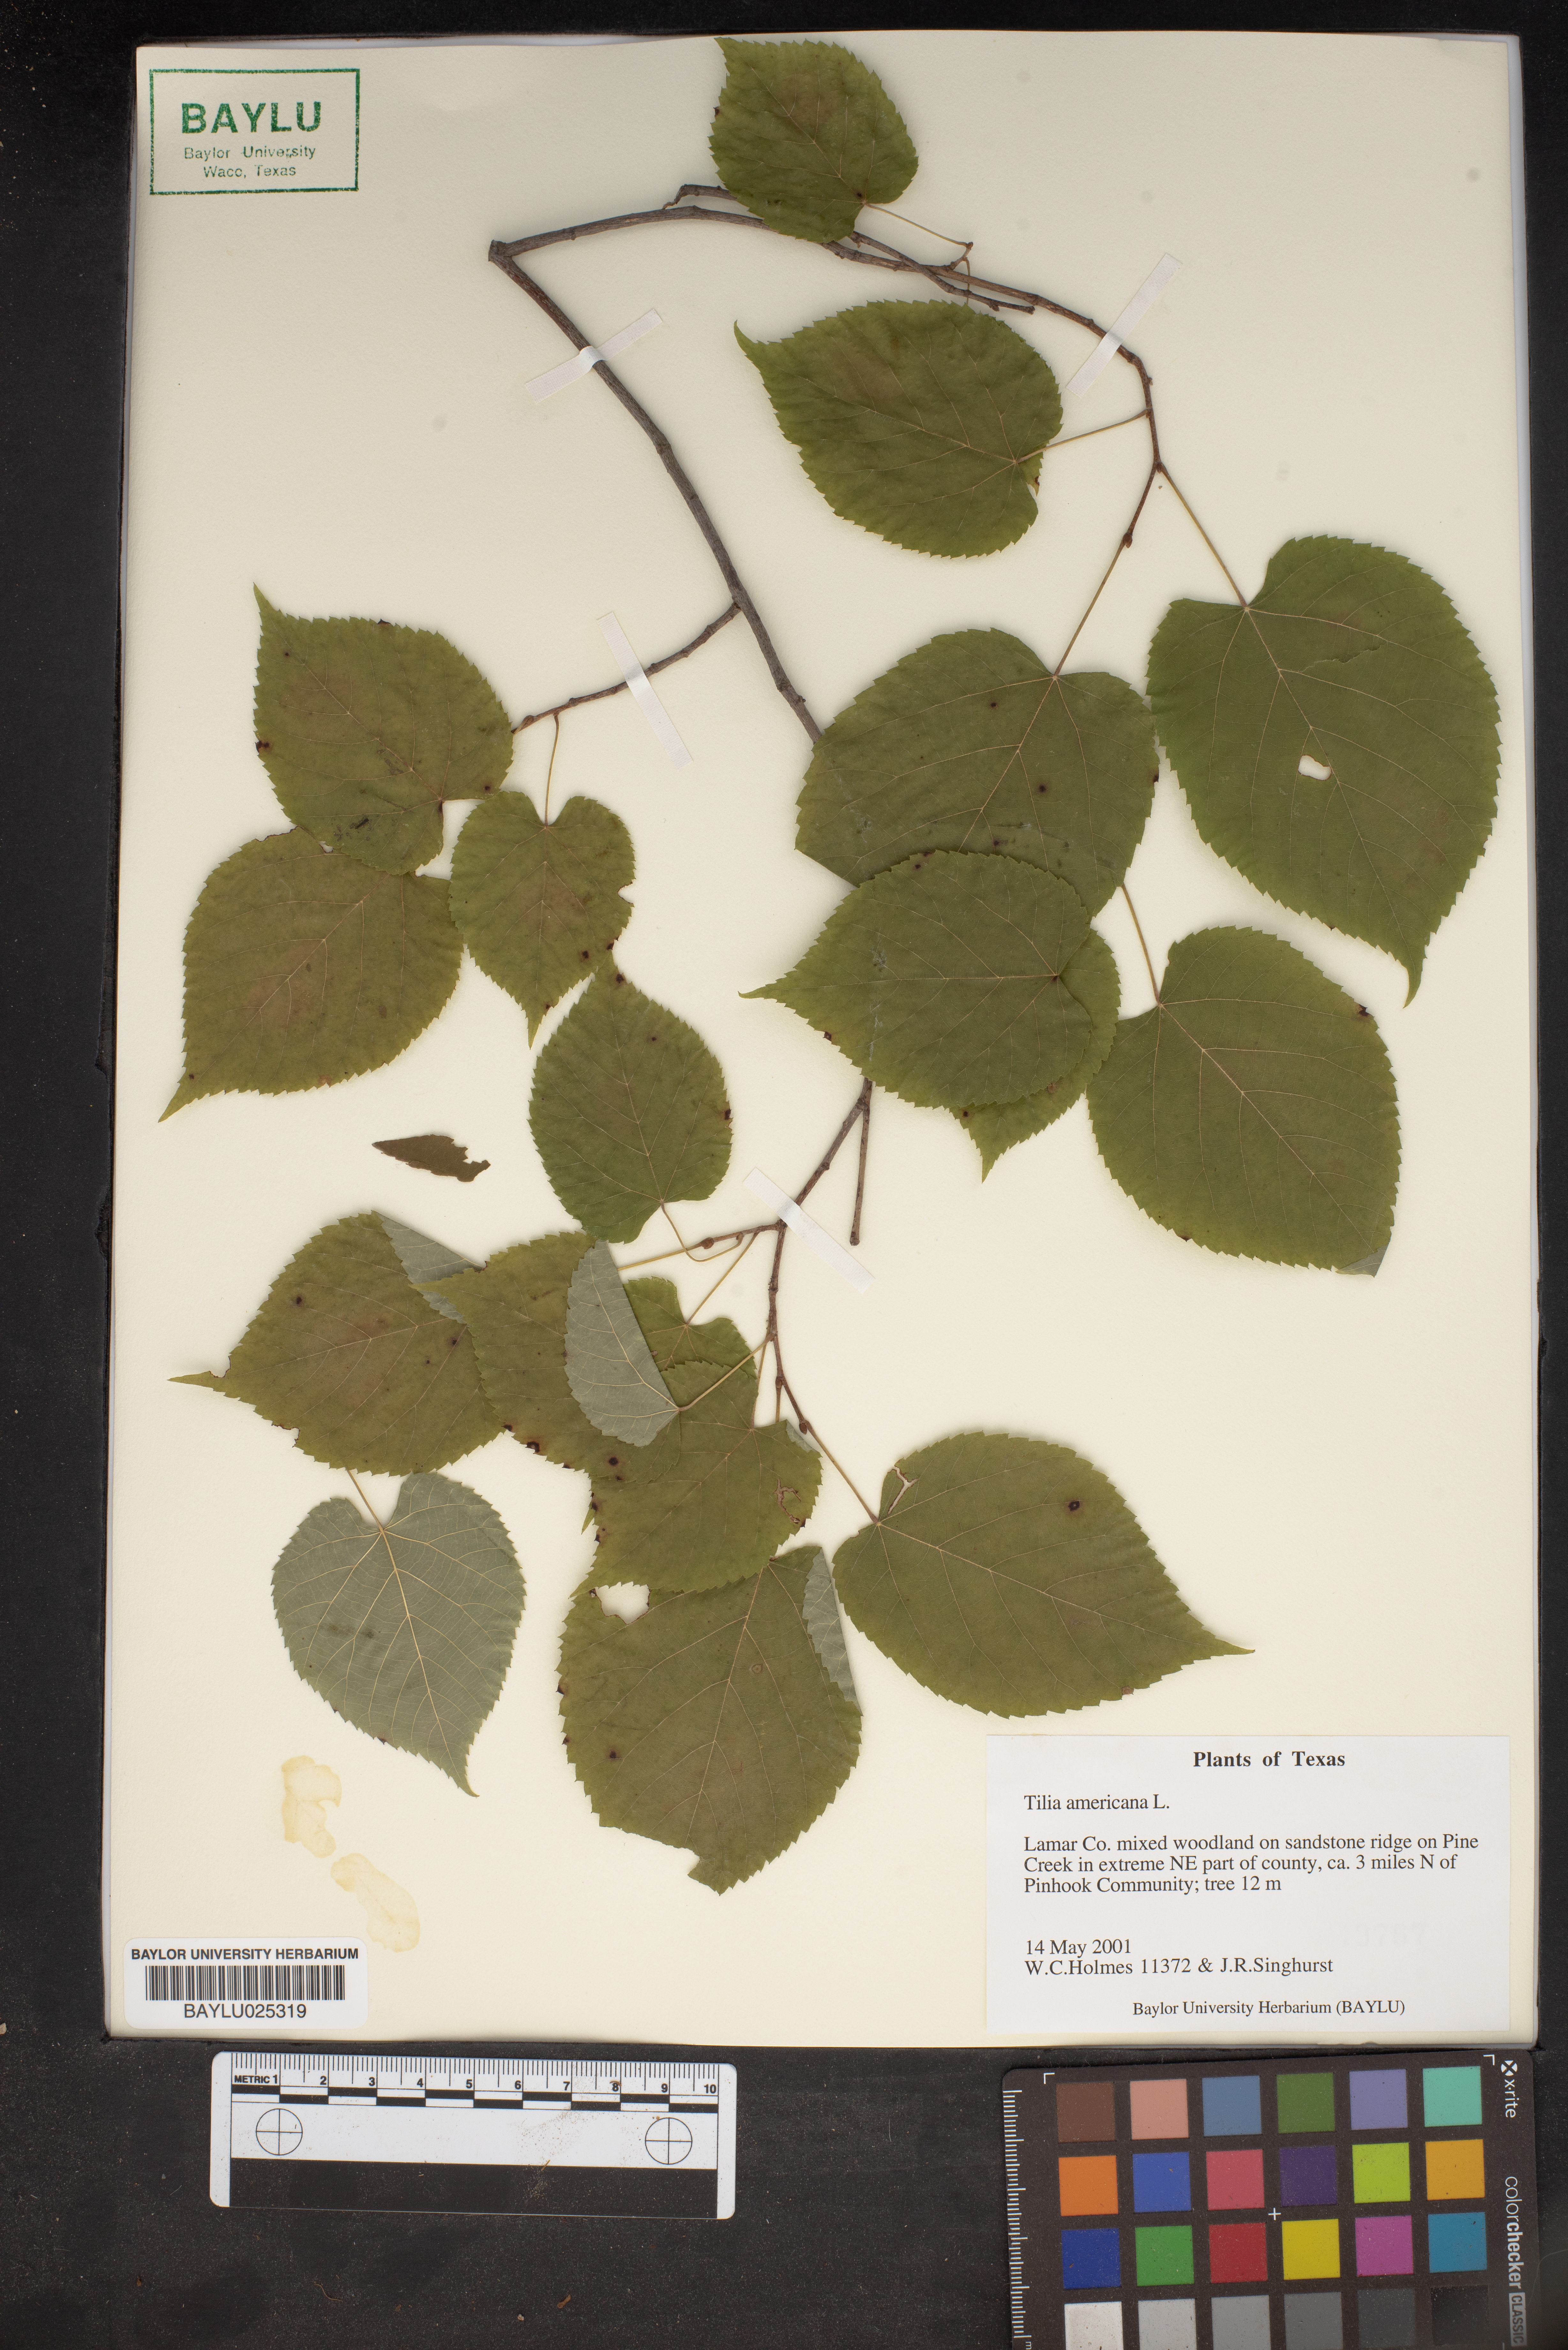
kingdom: Plantae
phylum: Tracheophyta
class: Magnoliopsida
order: Malvales
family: Malvaceae
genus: Tilia
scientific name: Tilia americana
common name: Basswood
